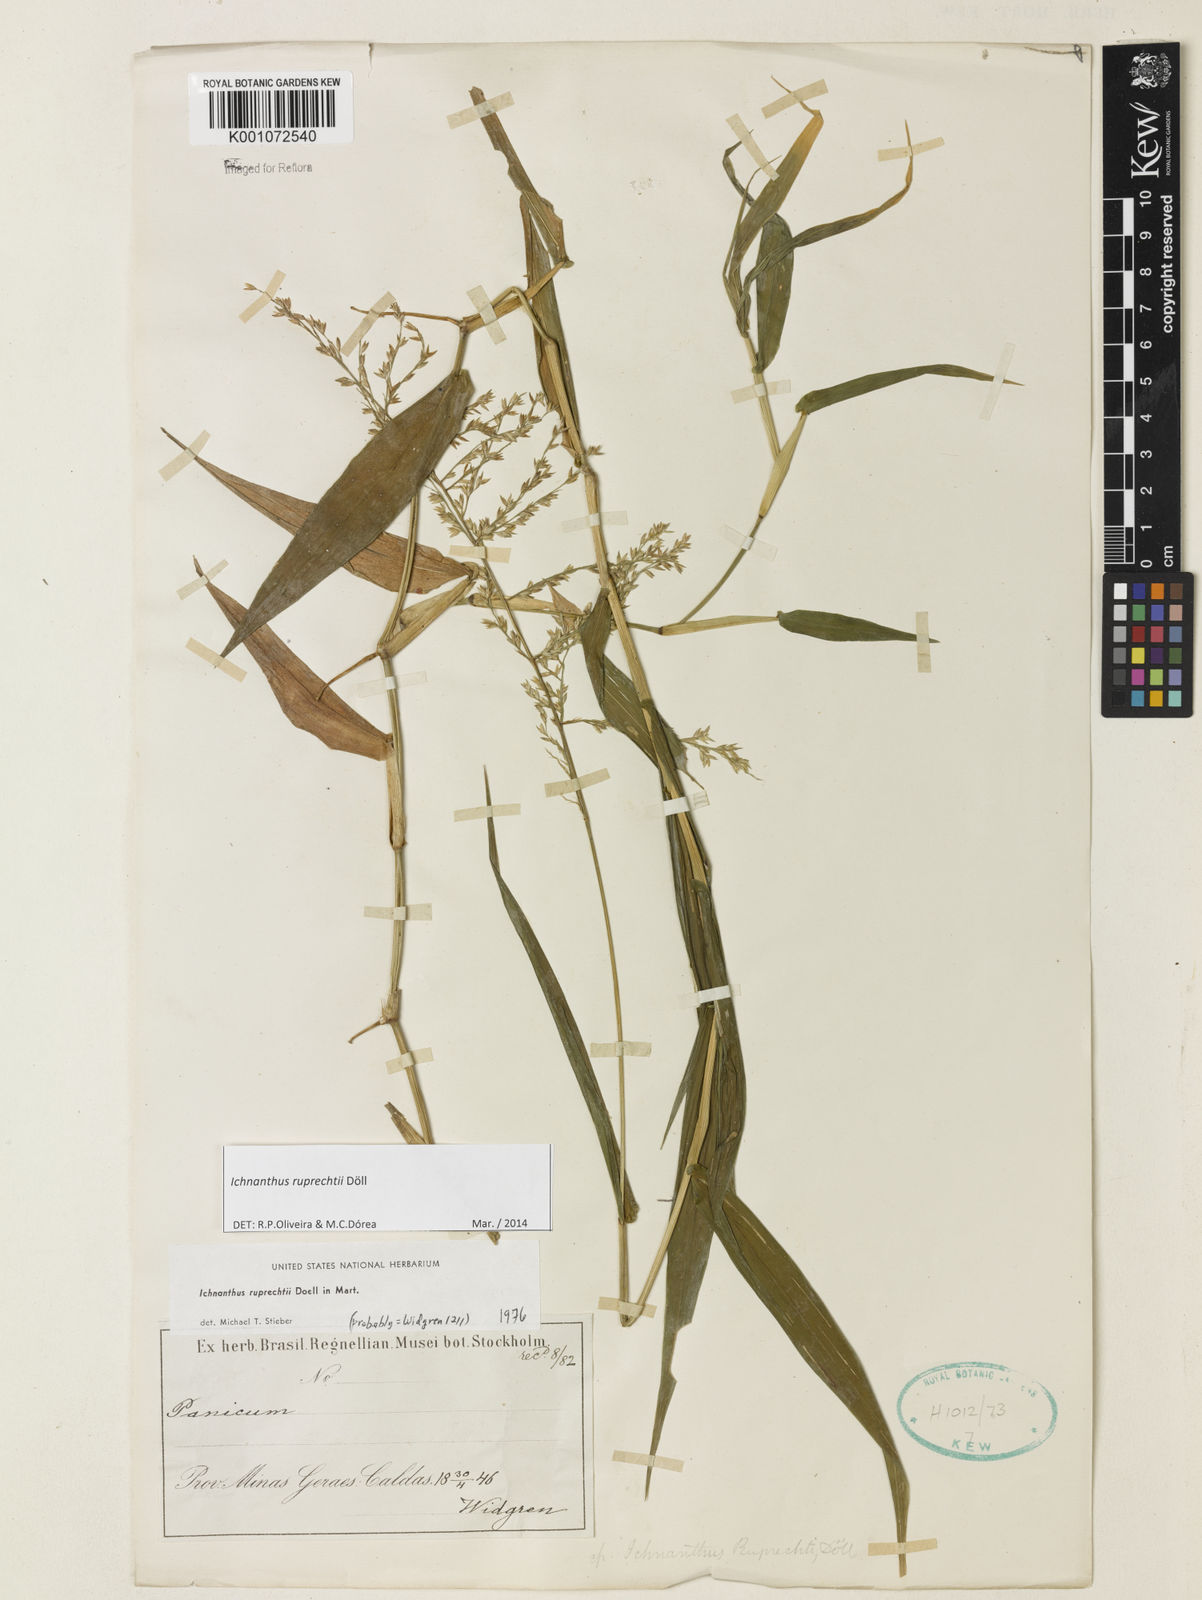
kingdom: Plantae
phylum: Tracheophyta
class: Liliopsida
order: Poales
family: Poaceae
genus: Ichnanthus
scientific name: Ichnanthus
